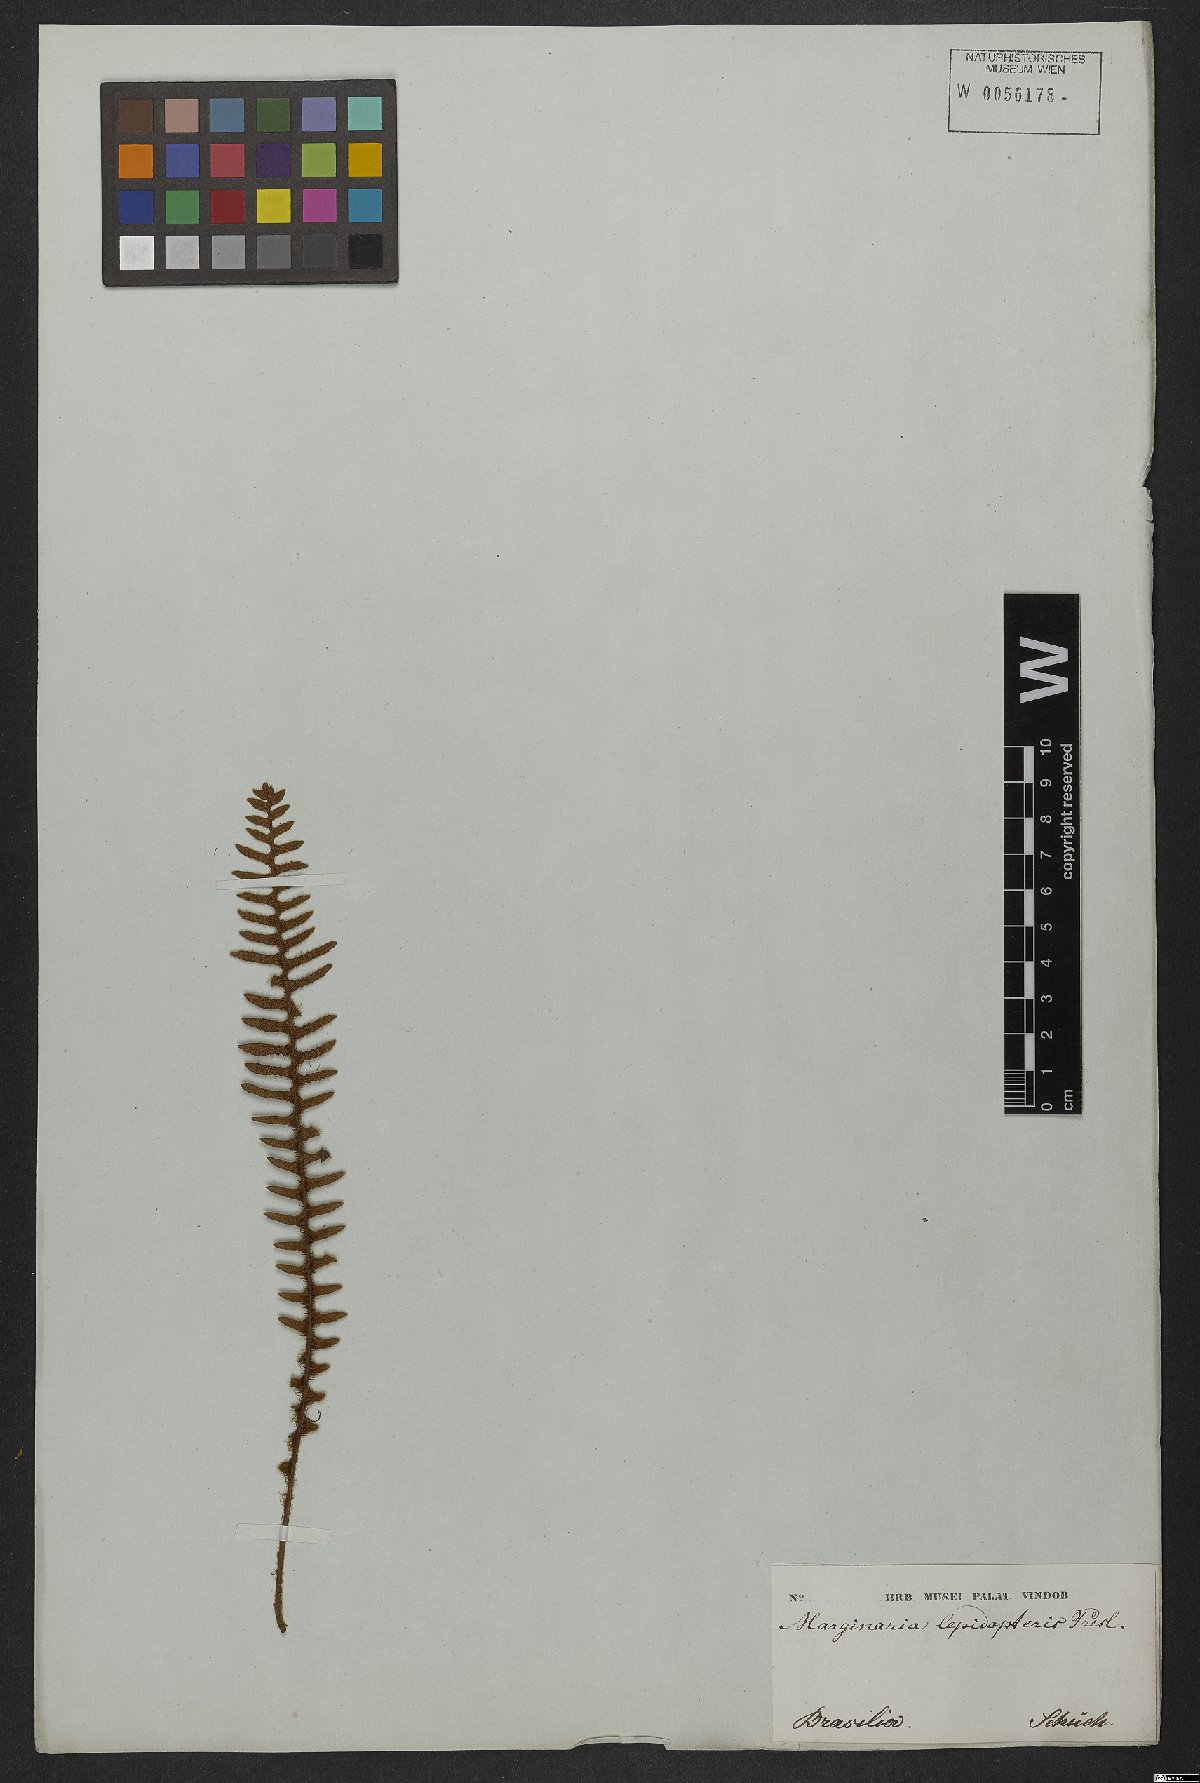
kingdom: Plantae
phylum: Tracheophyta
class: Polypodiopsida
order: Polypodiales
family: Polypodiaceae
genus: Pleopeltis
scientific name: Pleopeltis lepidopteris
